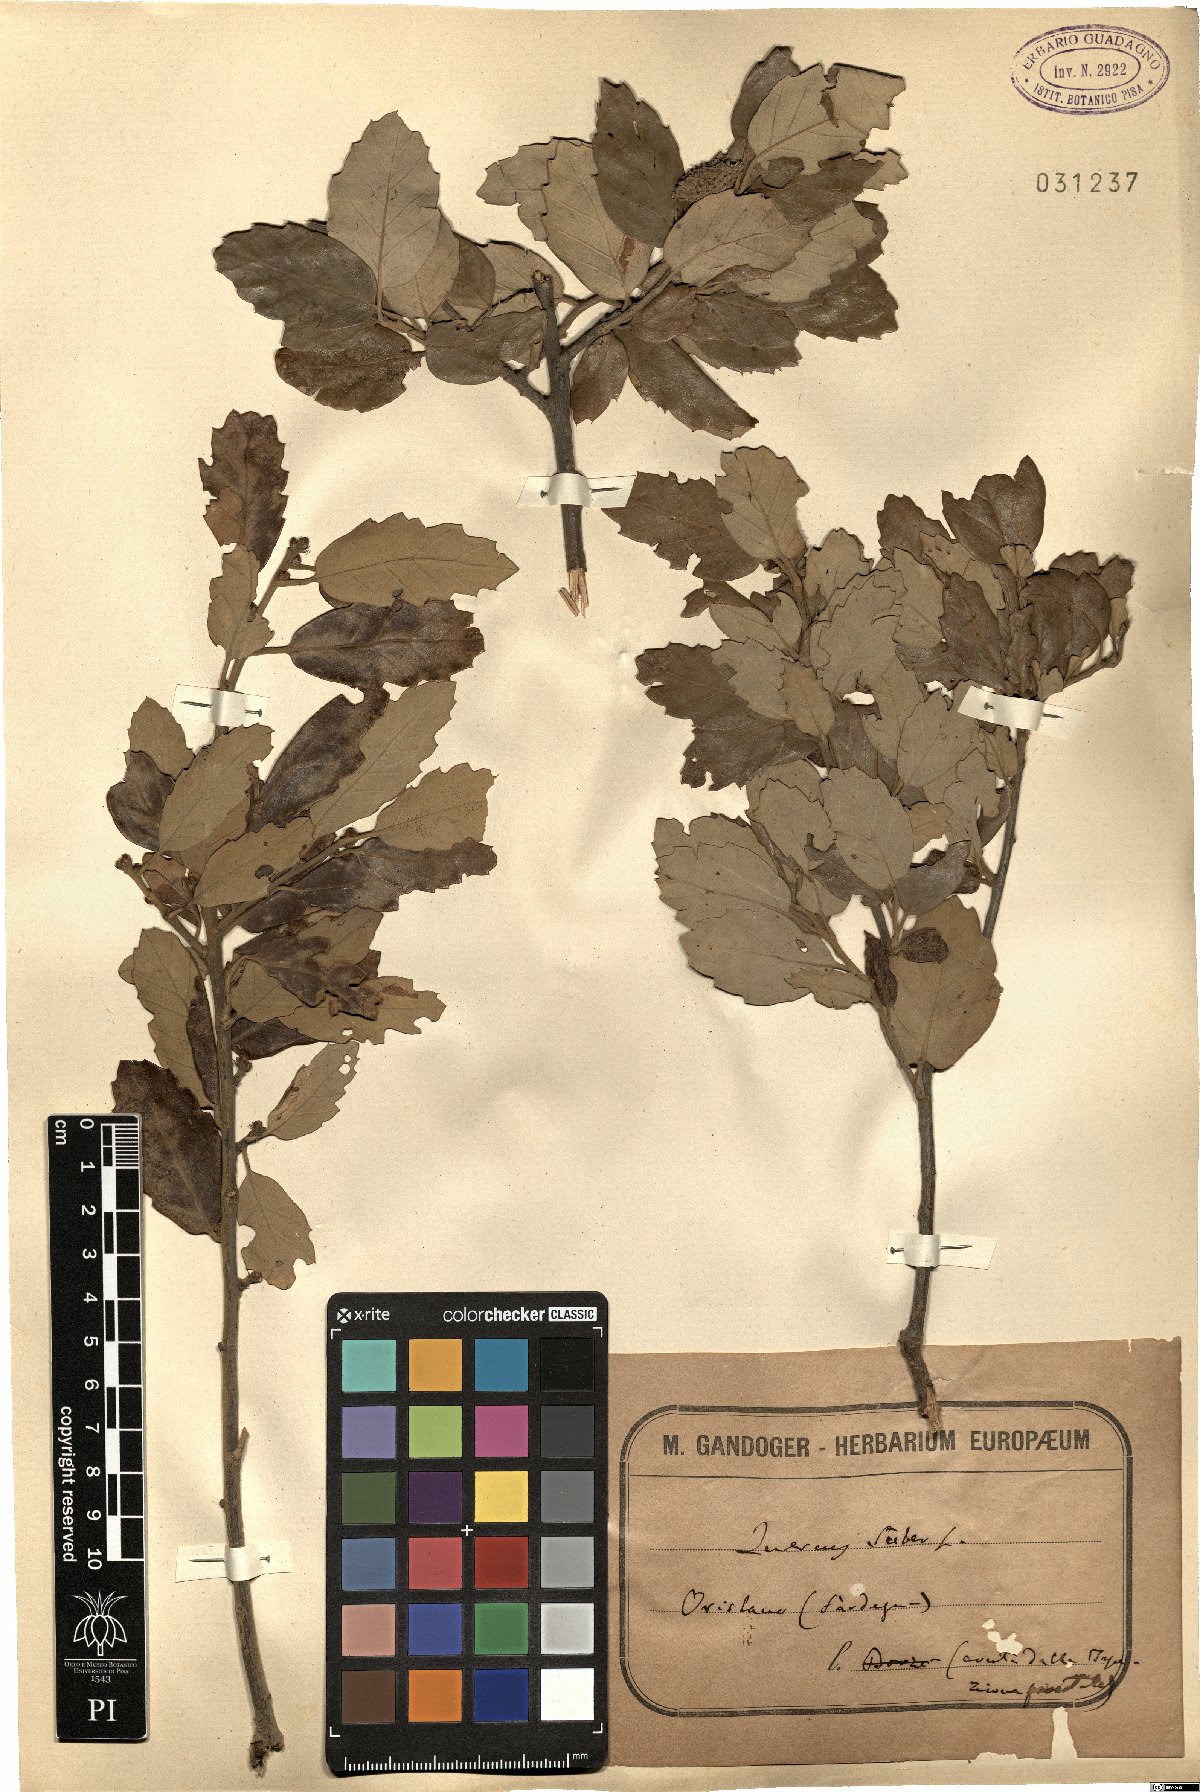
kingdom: Plantae
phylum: Tracheophyta
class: Magnoliopsida
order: Fagales
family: Fagaceae
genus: Quercus
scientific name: Quercus suber
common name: Cork oak
